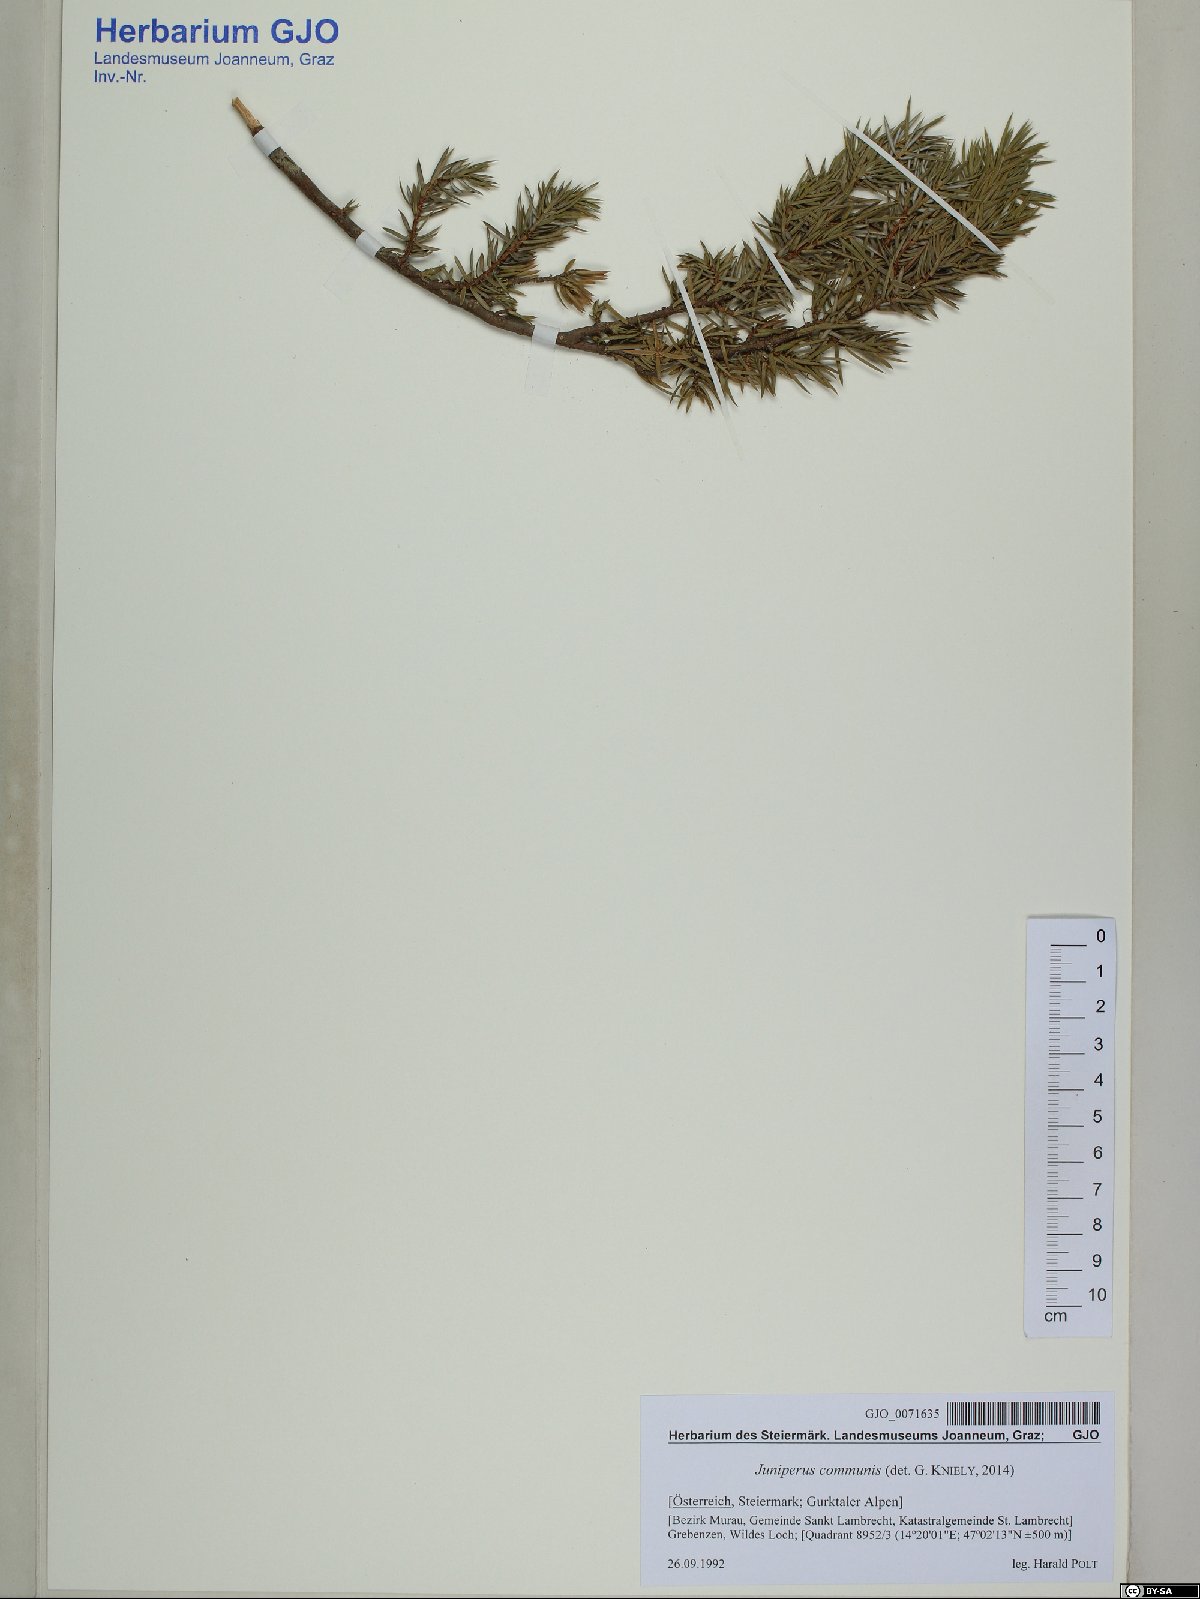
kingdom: Plantae
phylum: Tracheophyta
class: Pinopsida
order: Pinales
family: Cupressaceae
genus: Juniperus
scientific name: Juniperus communis
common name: Common juniper
